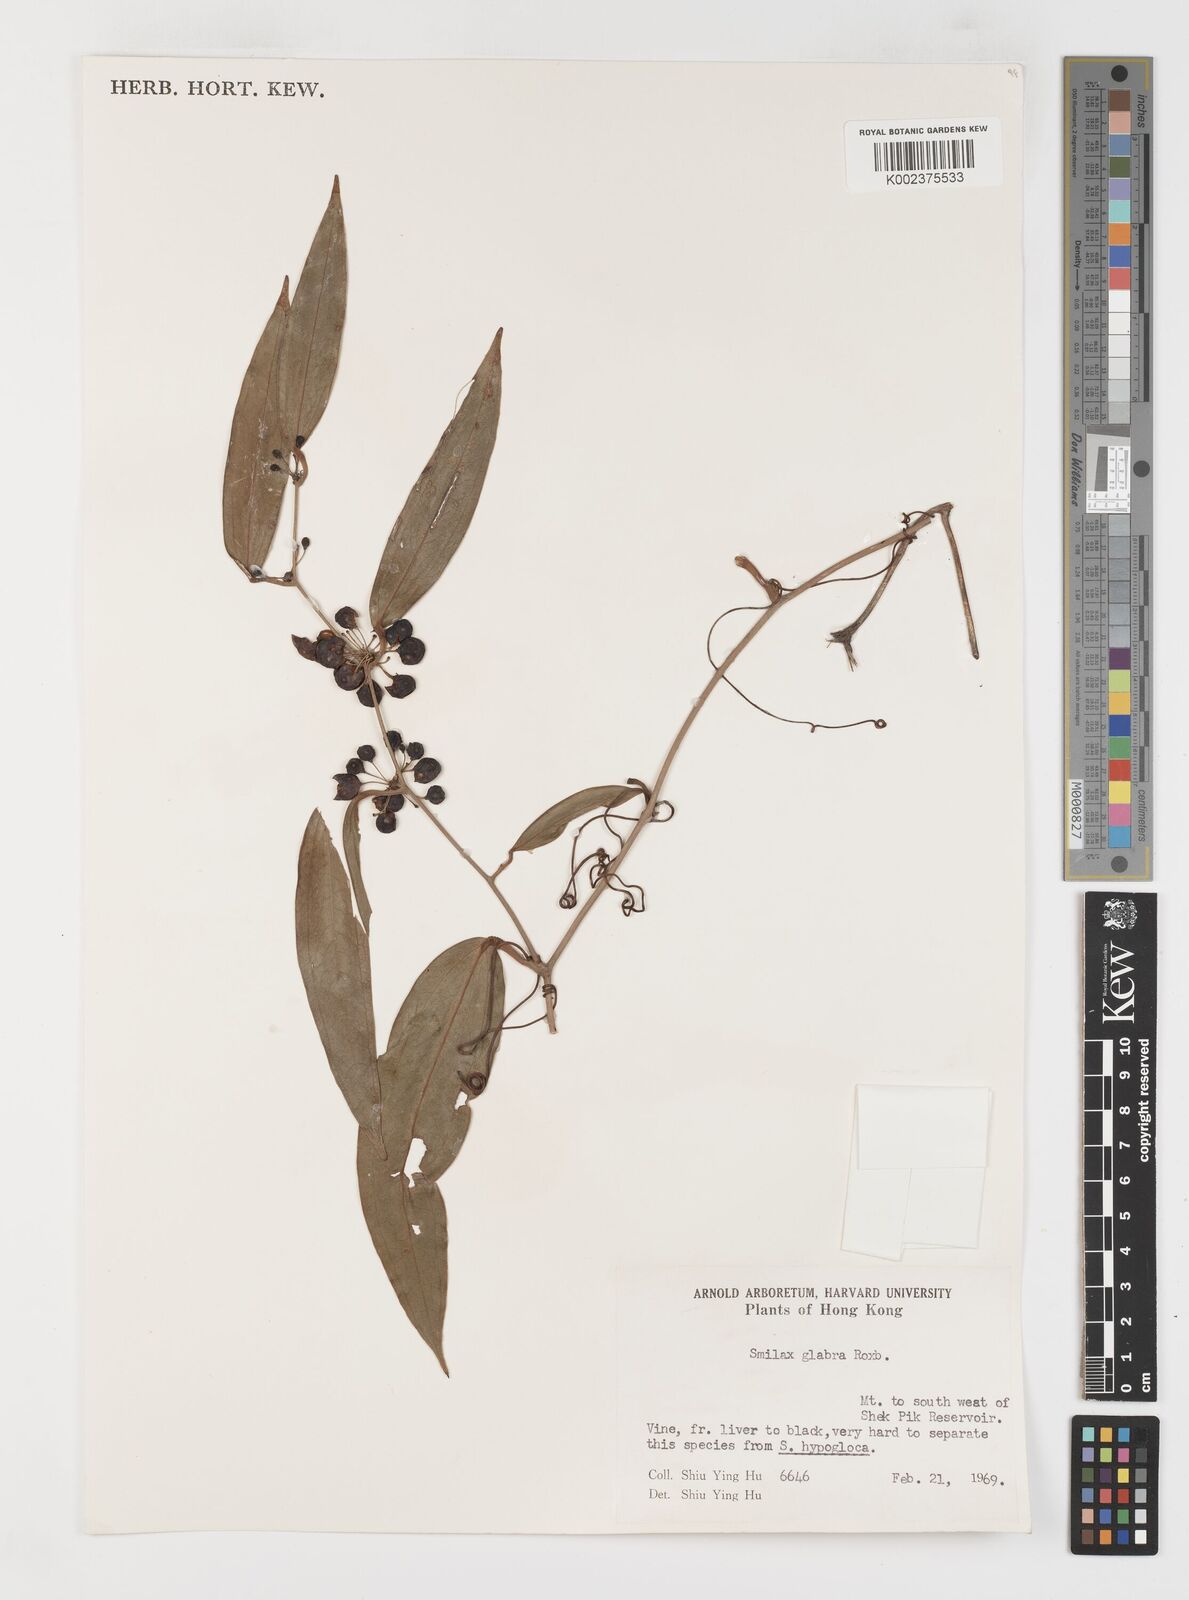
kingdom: Plantae
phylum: Tracheophyta
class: Liliopsida
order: Liliales
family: Smilacaceae
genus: Smilax
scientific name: Smilax laevis
